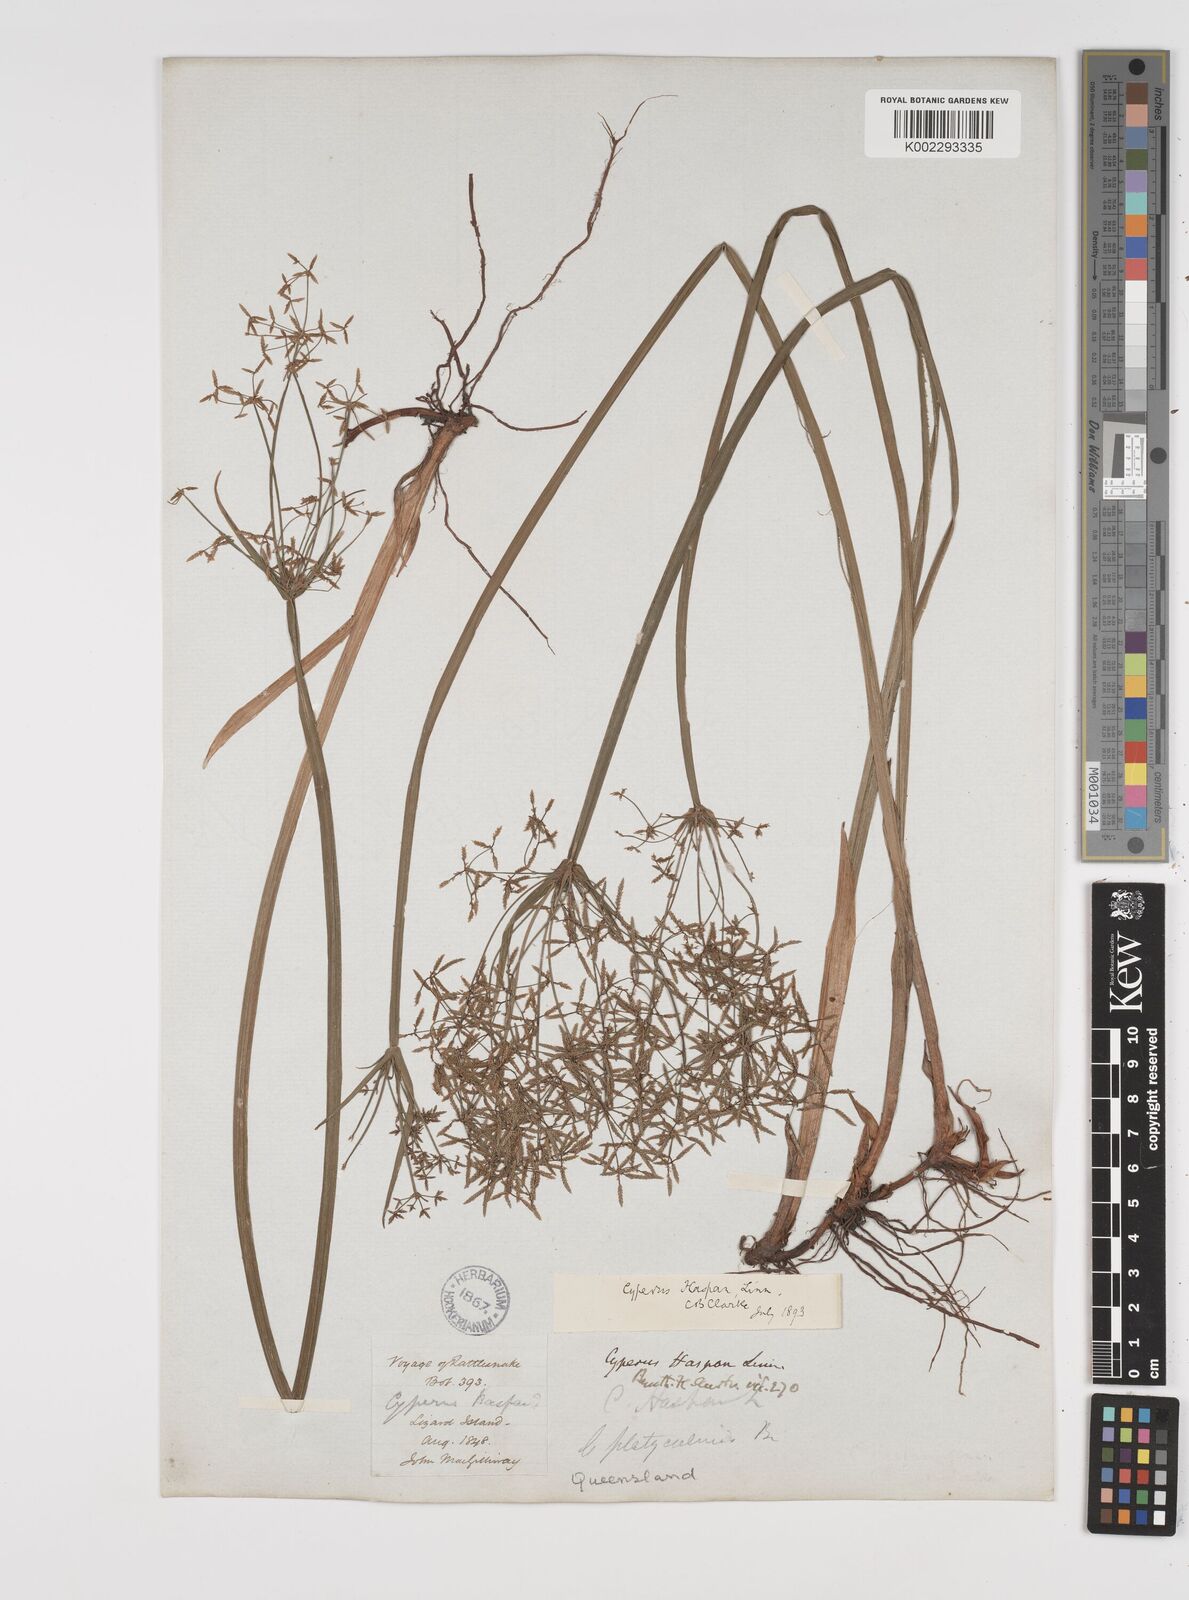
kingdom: Plantae
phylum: Tracheophyta
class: Liliopsida
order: Poales
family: Cyperaceae
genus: Cyperus
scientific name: Cyperus haspan
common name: Haspan flatsedge
